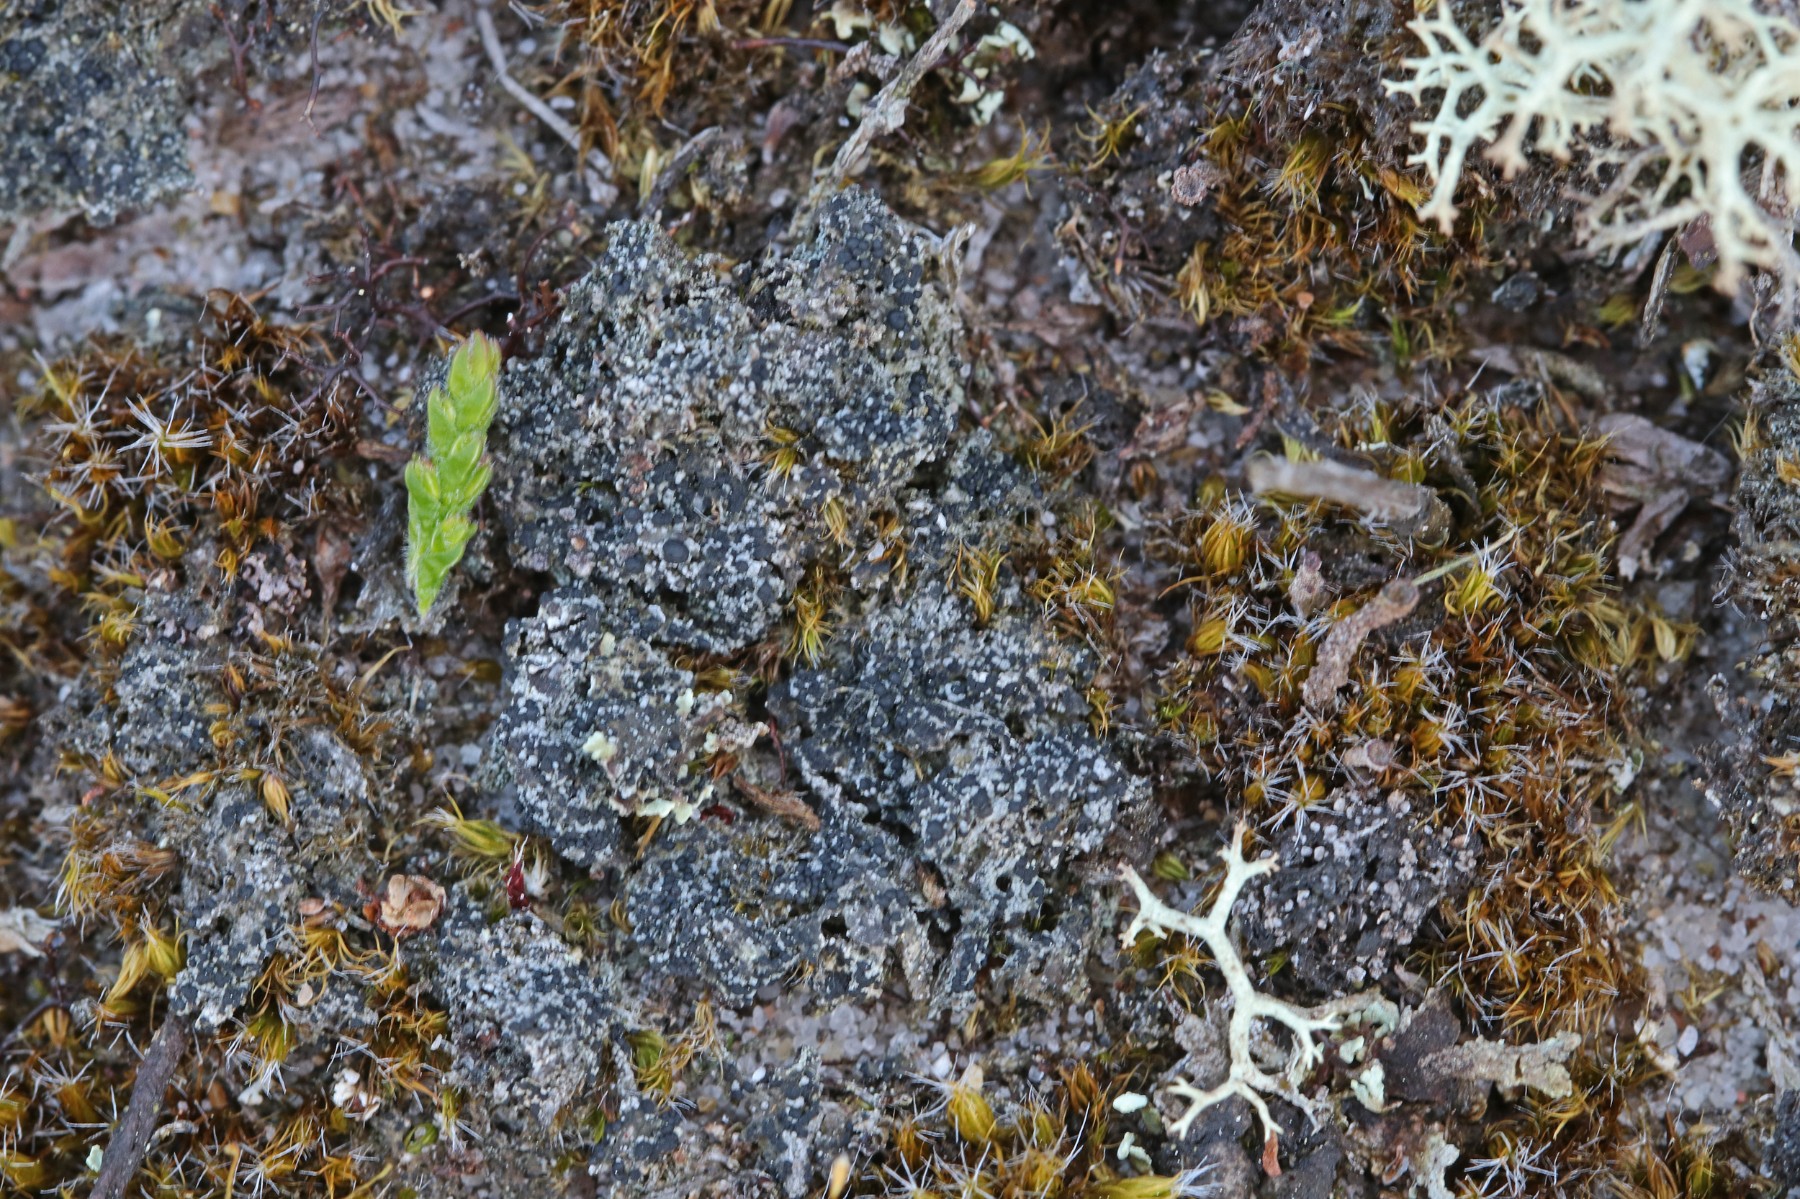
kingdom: Fungi
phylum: Ascomycota
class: Lecanoromycetes
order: Lecanorales
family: Byssolomataceae
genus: Micarea
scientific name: Micarea lignaria
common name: tørve-knaplav
